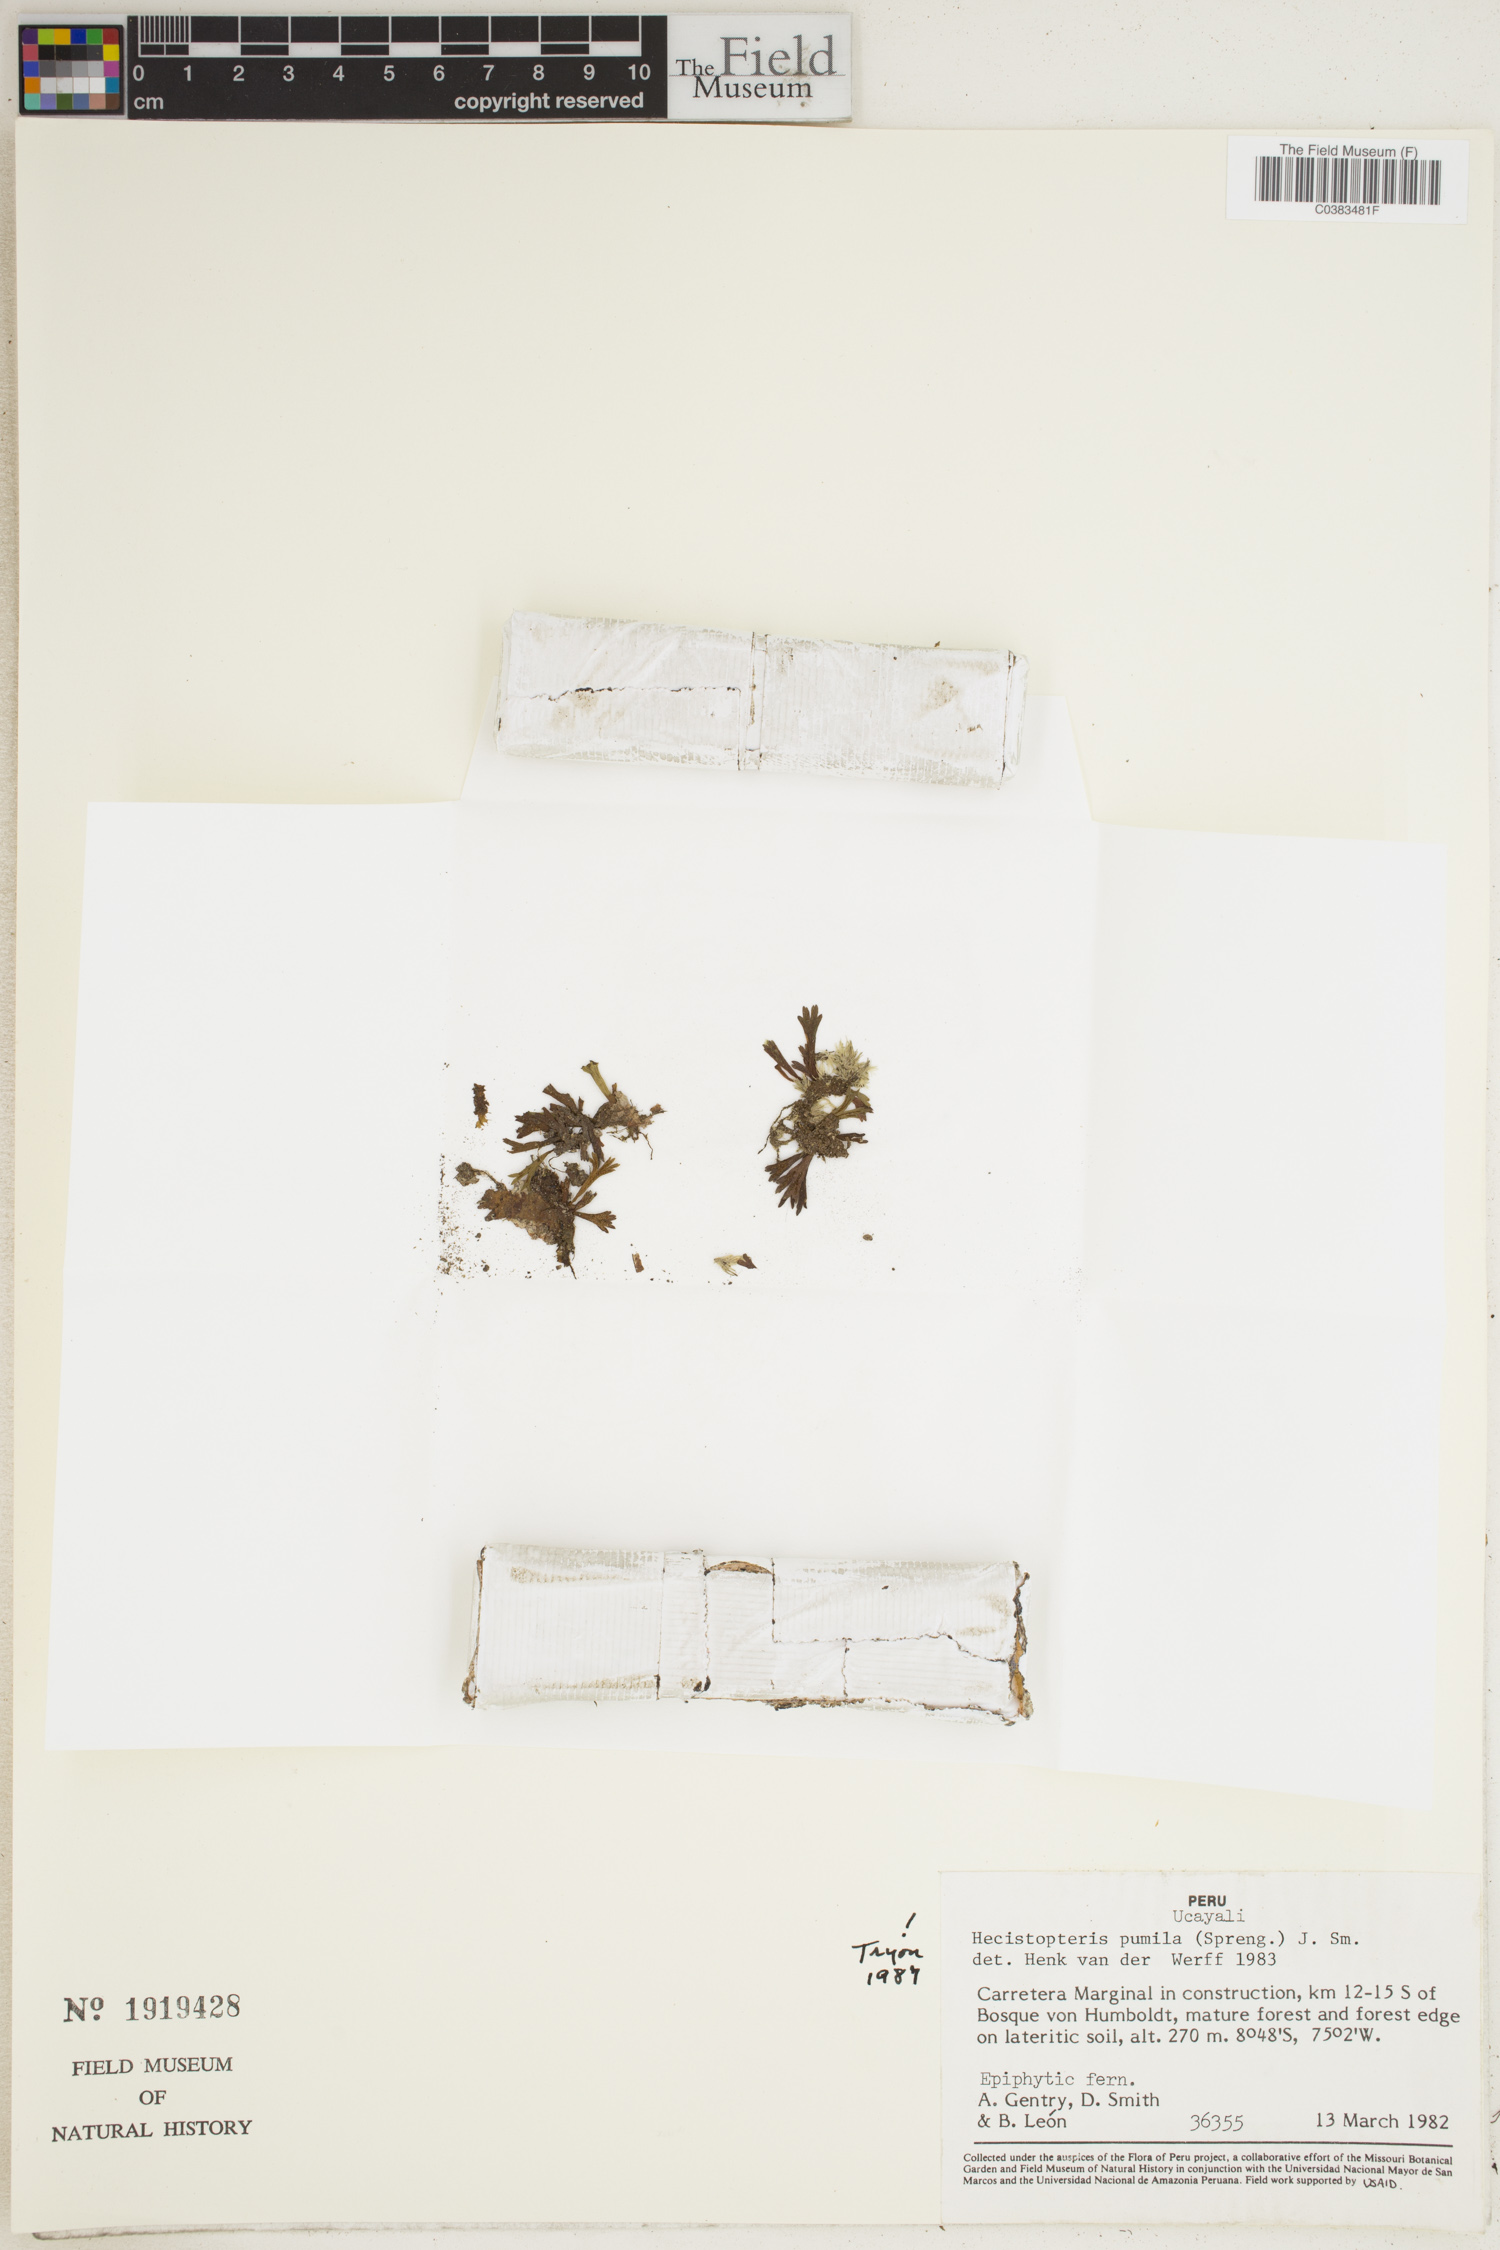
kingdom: Plantae
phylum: Tracheophyta
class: Polypodiopsida
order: Polypodiales
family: Pteridaceae
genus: Hecistopteris
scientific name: Hecistopteris pumila
